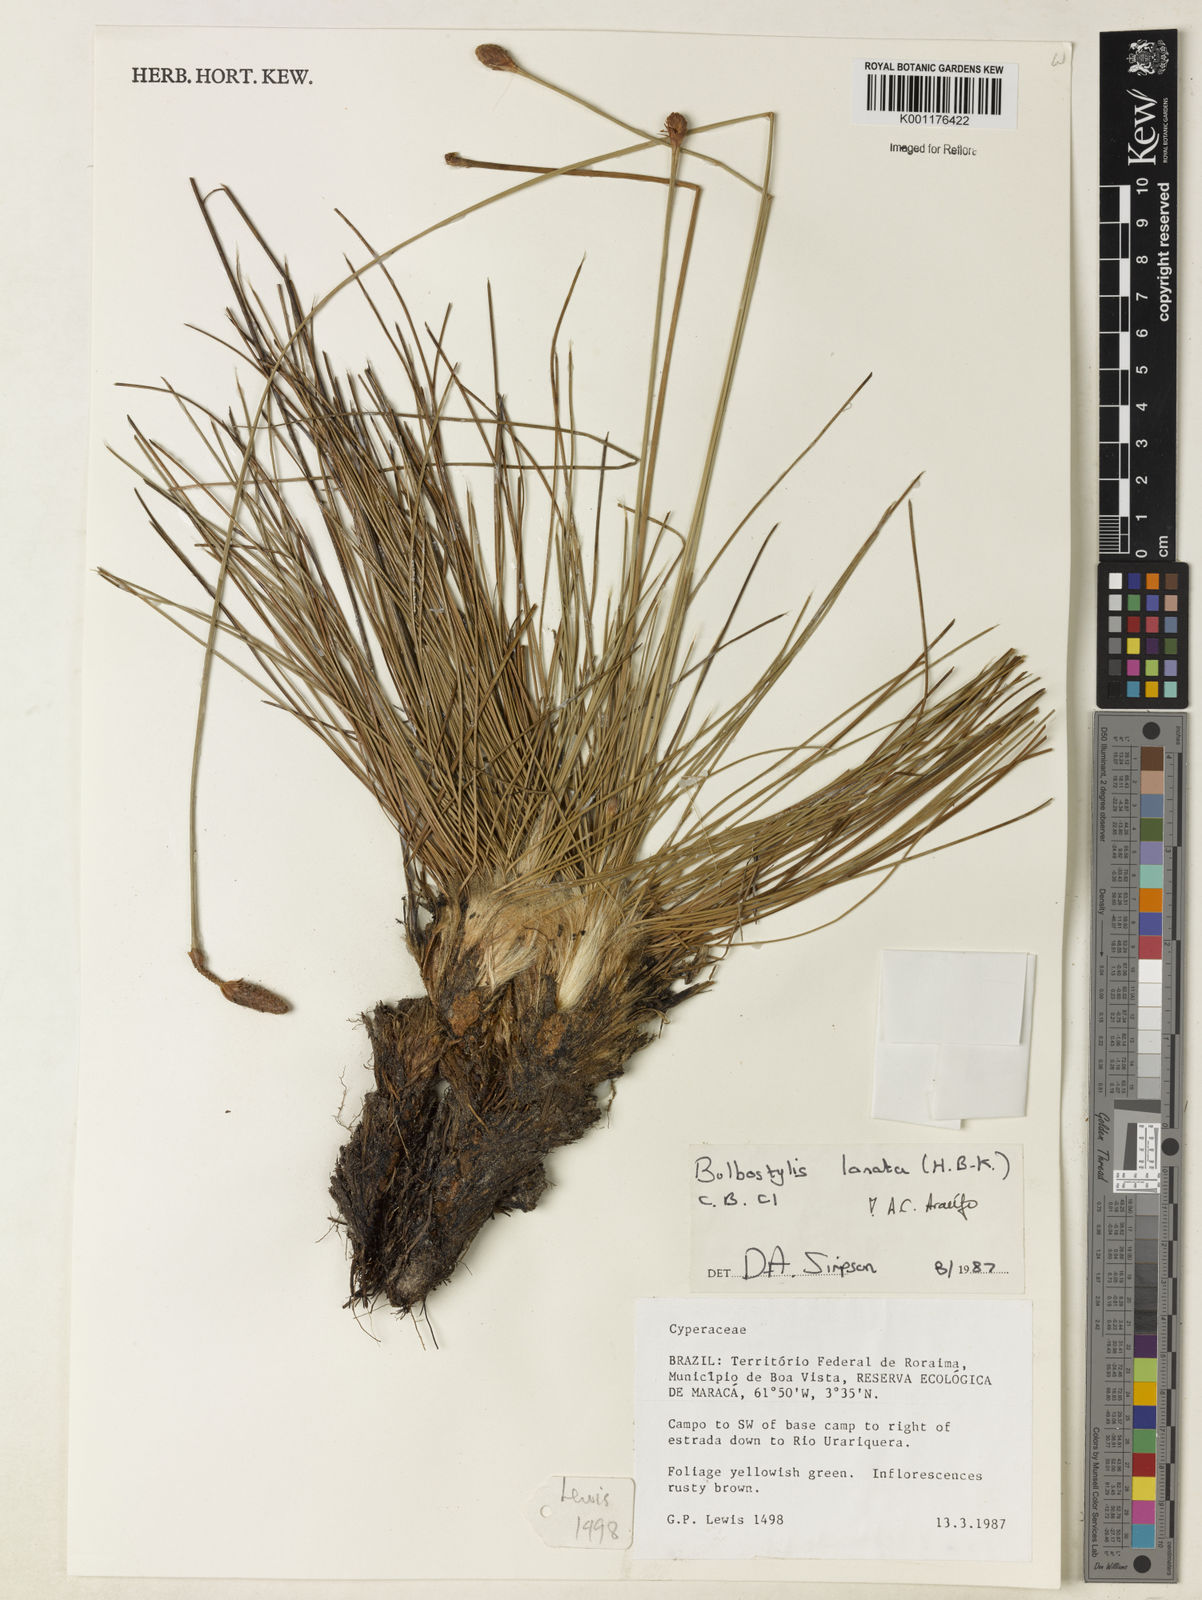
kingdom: Plantae
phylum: Tracheophyta
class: Liliopsida
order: Poales
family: Cyperaceae
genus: Bulbostylis
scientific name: Bulbostylis lanata
